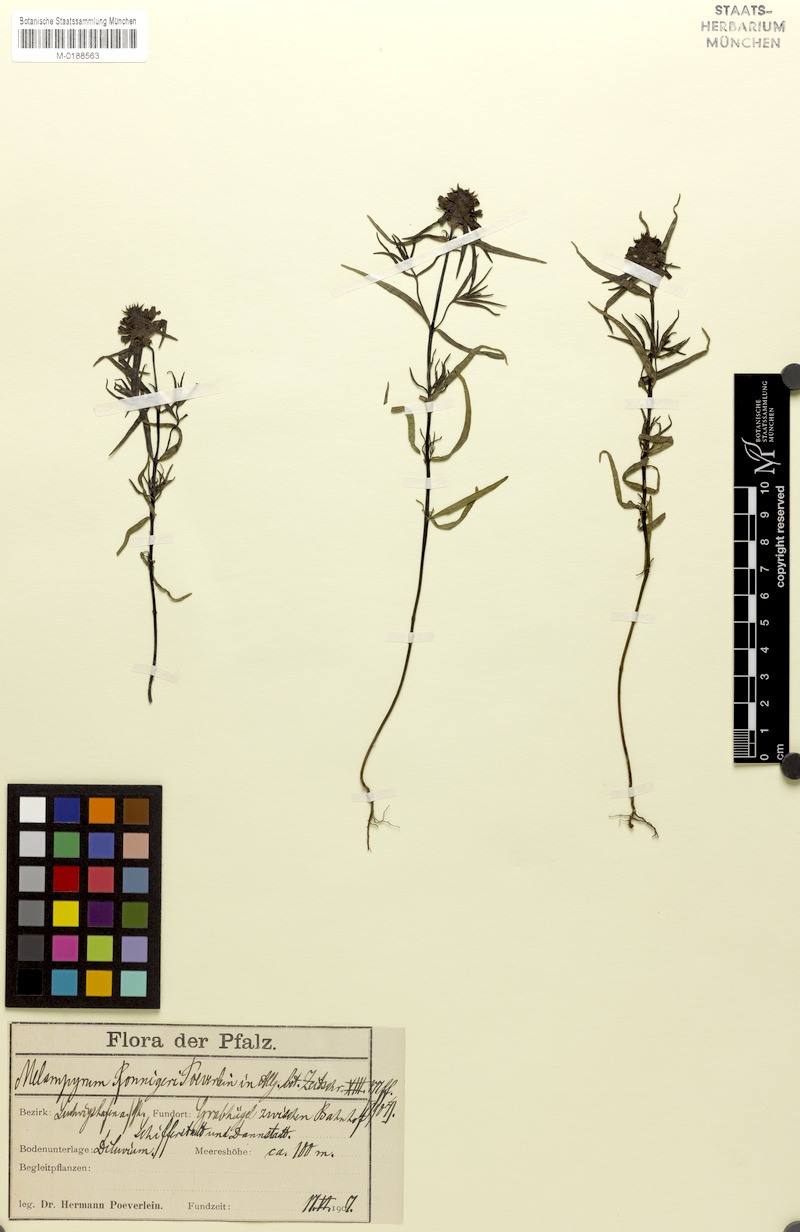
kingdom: Plantae
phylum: Tracheophyta
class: Magnoliopsida
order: Lamiales
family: Orobanchaceae
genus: Melampyrum
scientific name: Melampyrum cristatum
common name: Crested cow-wheat
